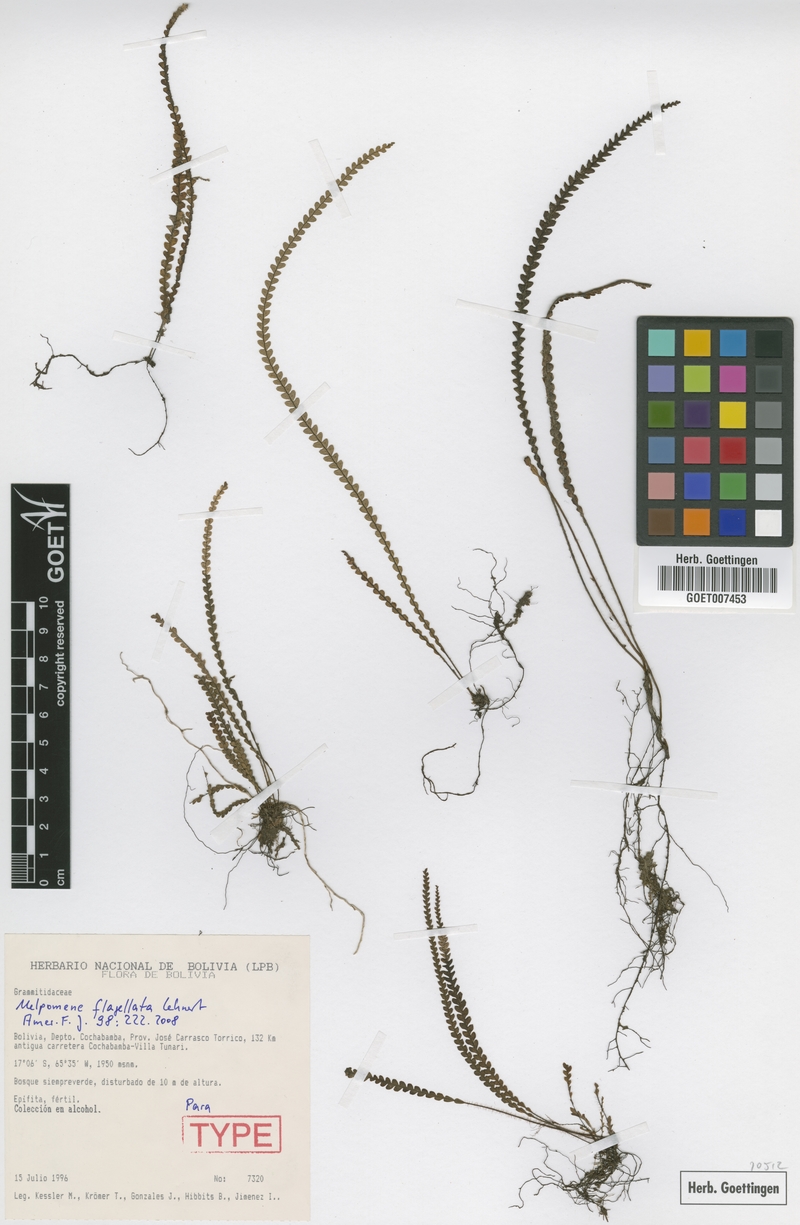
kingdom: Plantae
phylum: Tracheophyta
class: Polypodiopsida
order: Polypodiales
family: Polypodiaceae
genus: Melpomene
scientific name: Melpomene flagellata
